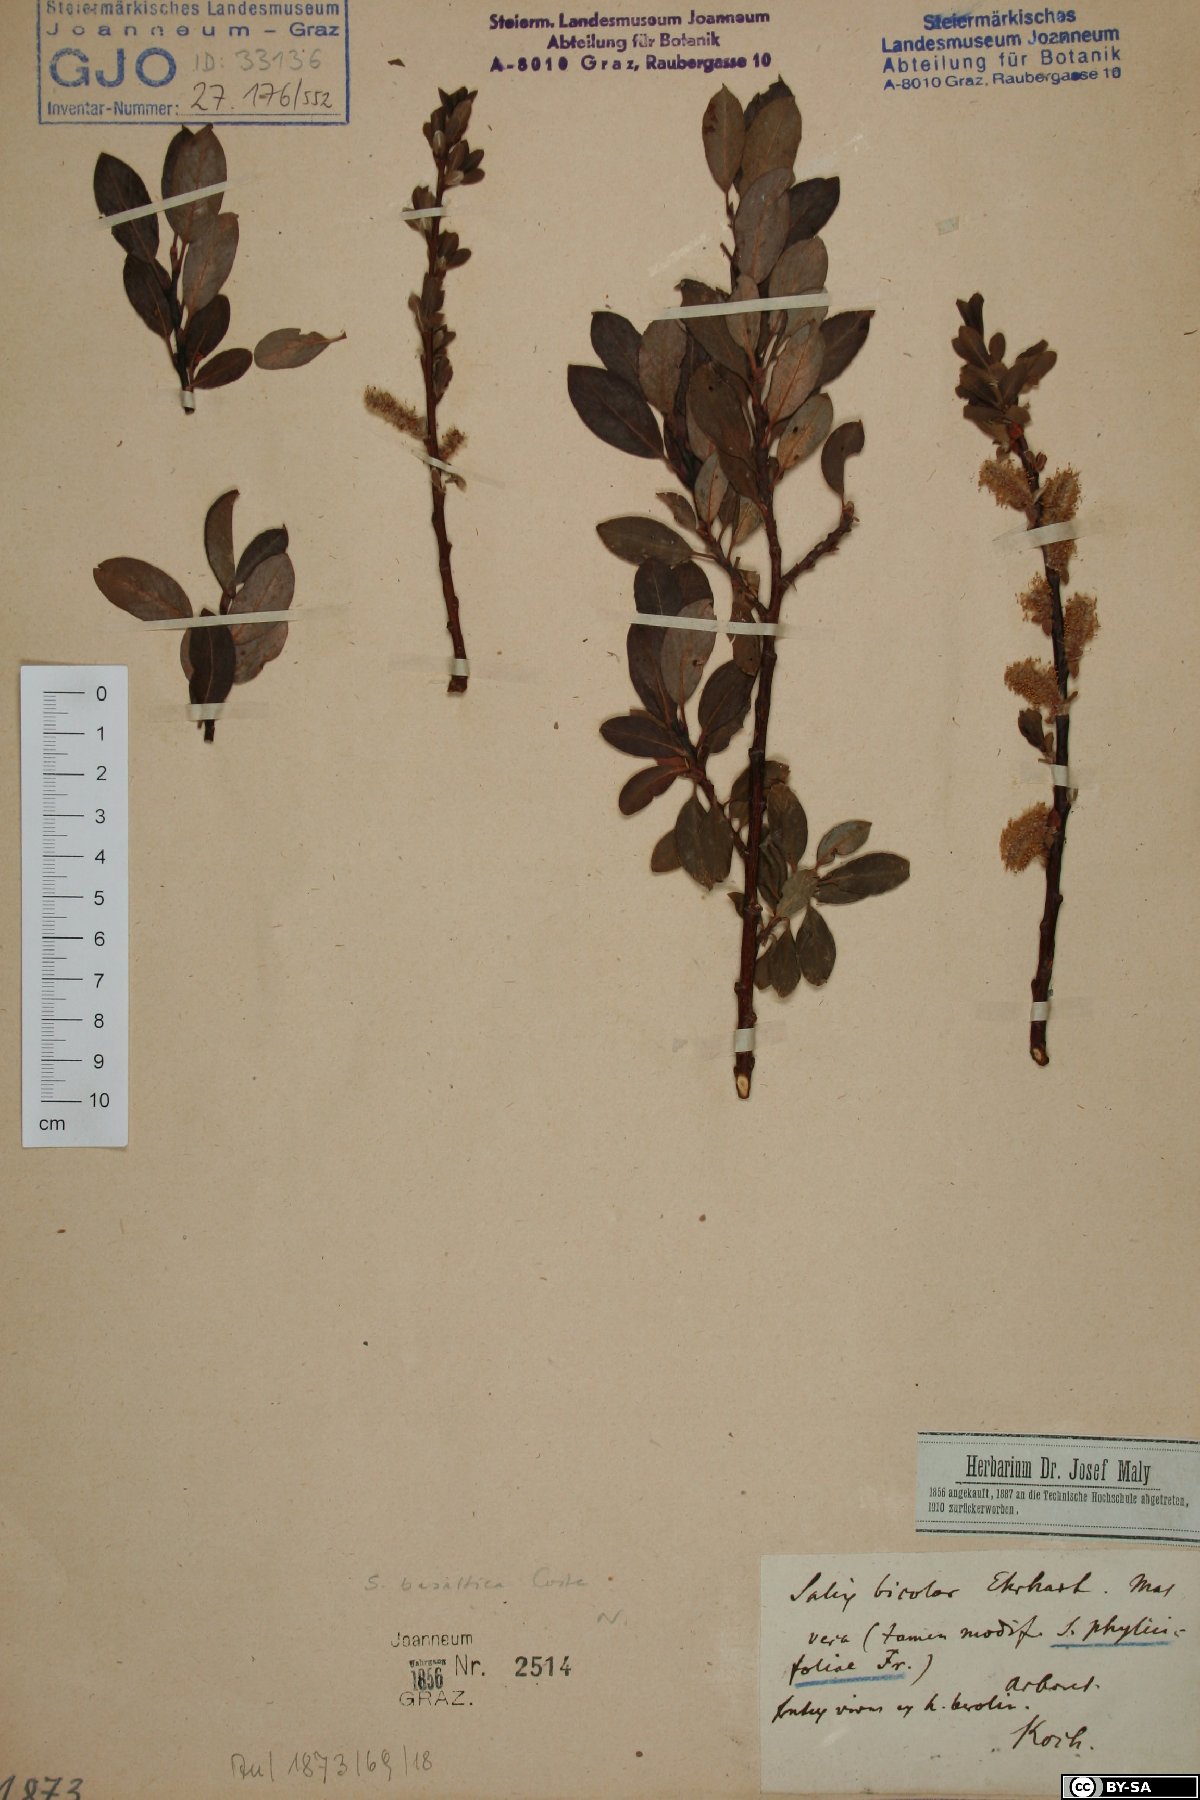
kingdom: Plantae
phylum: Tracheophyta
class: Magnoliopsida
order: Malpighiales
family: Salicaceae
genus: Salix
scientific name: Salix basaltica
